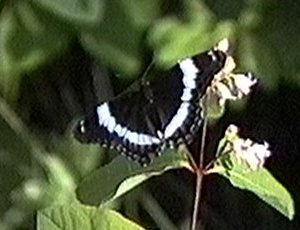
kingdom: Animalia
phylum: Arthropoda
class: Insecta
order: Lepidoptera
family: Nymphalidae
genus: Limenitis
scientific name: Limenitis arthemis
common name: Red-spotted Admiral
